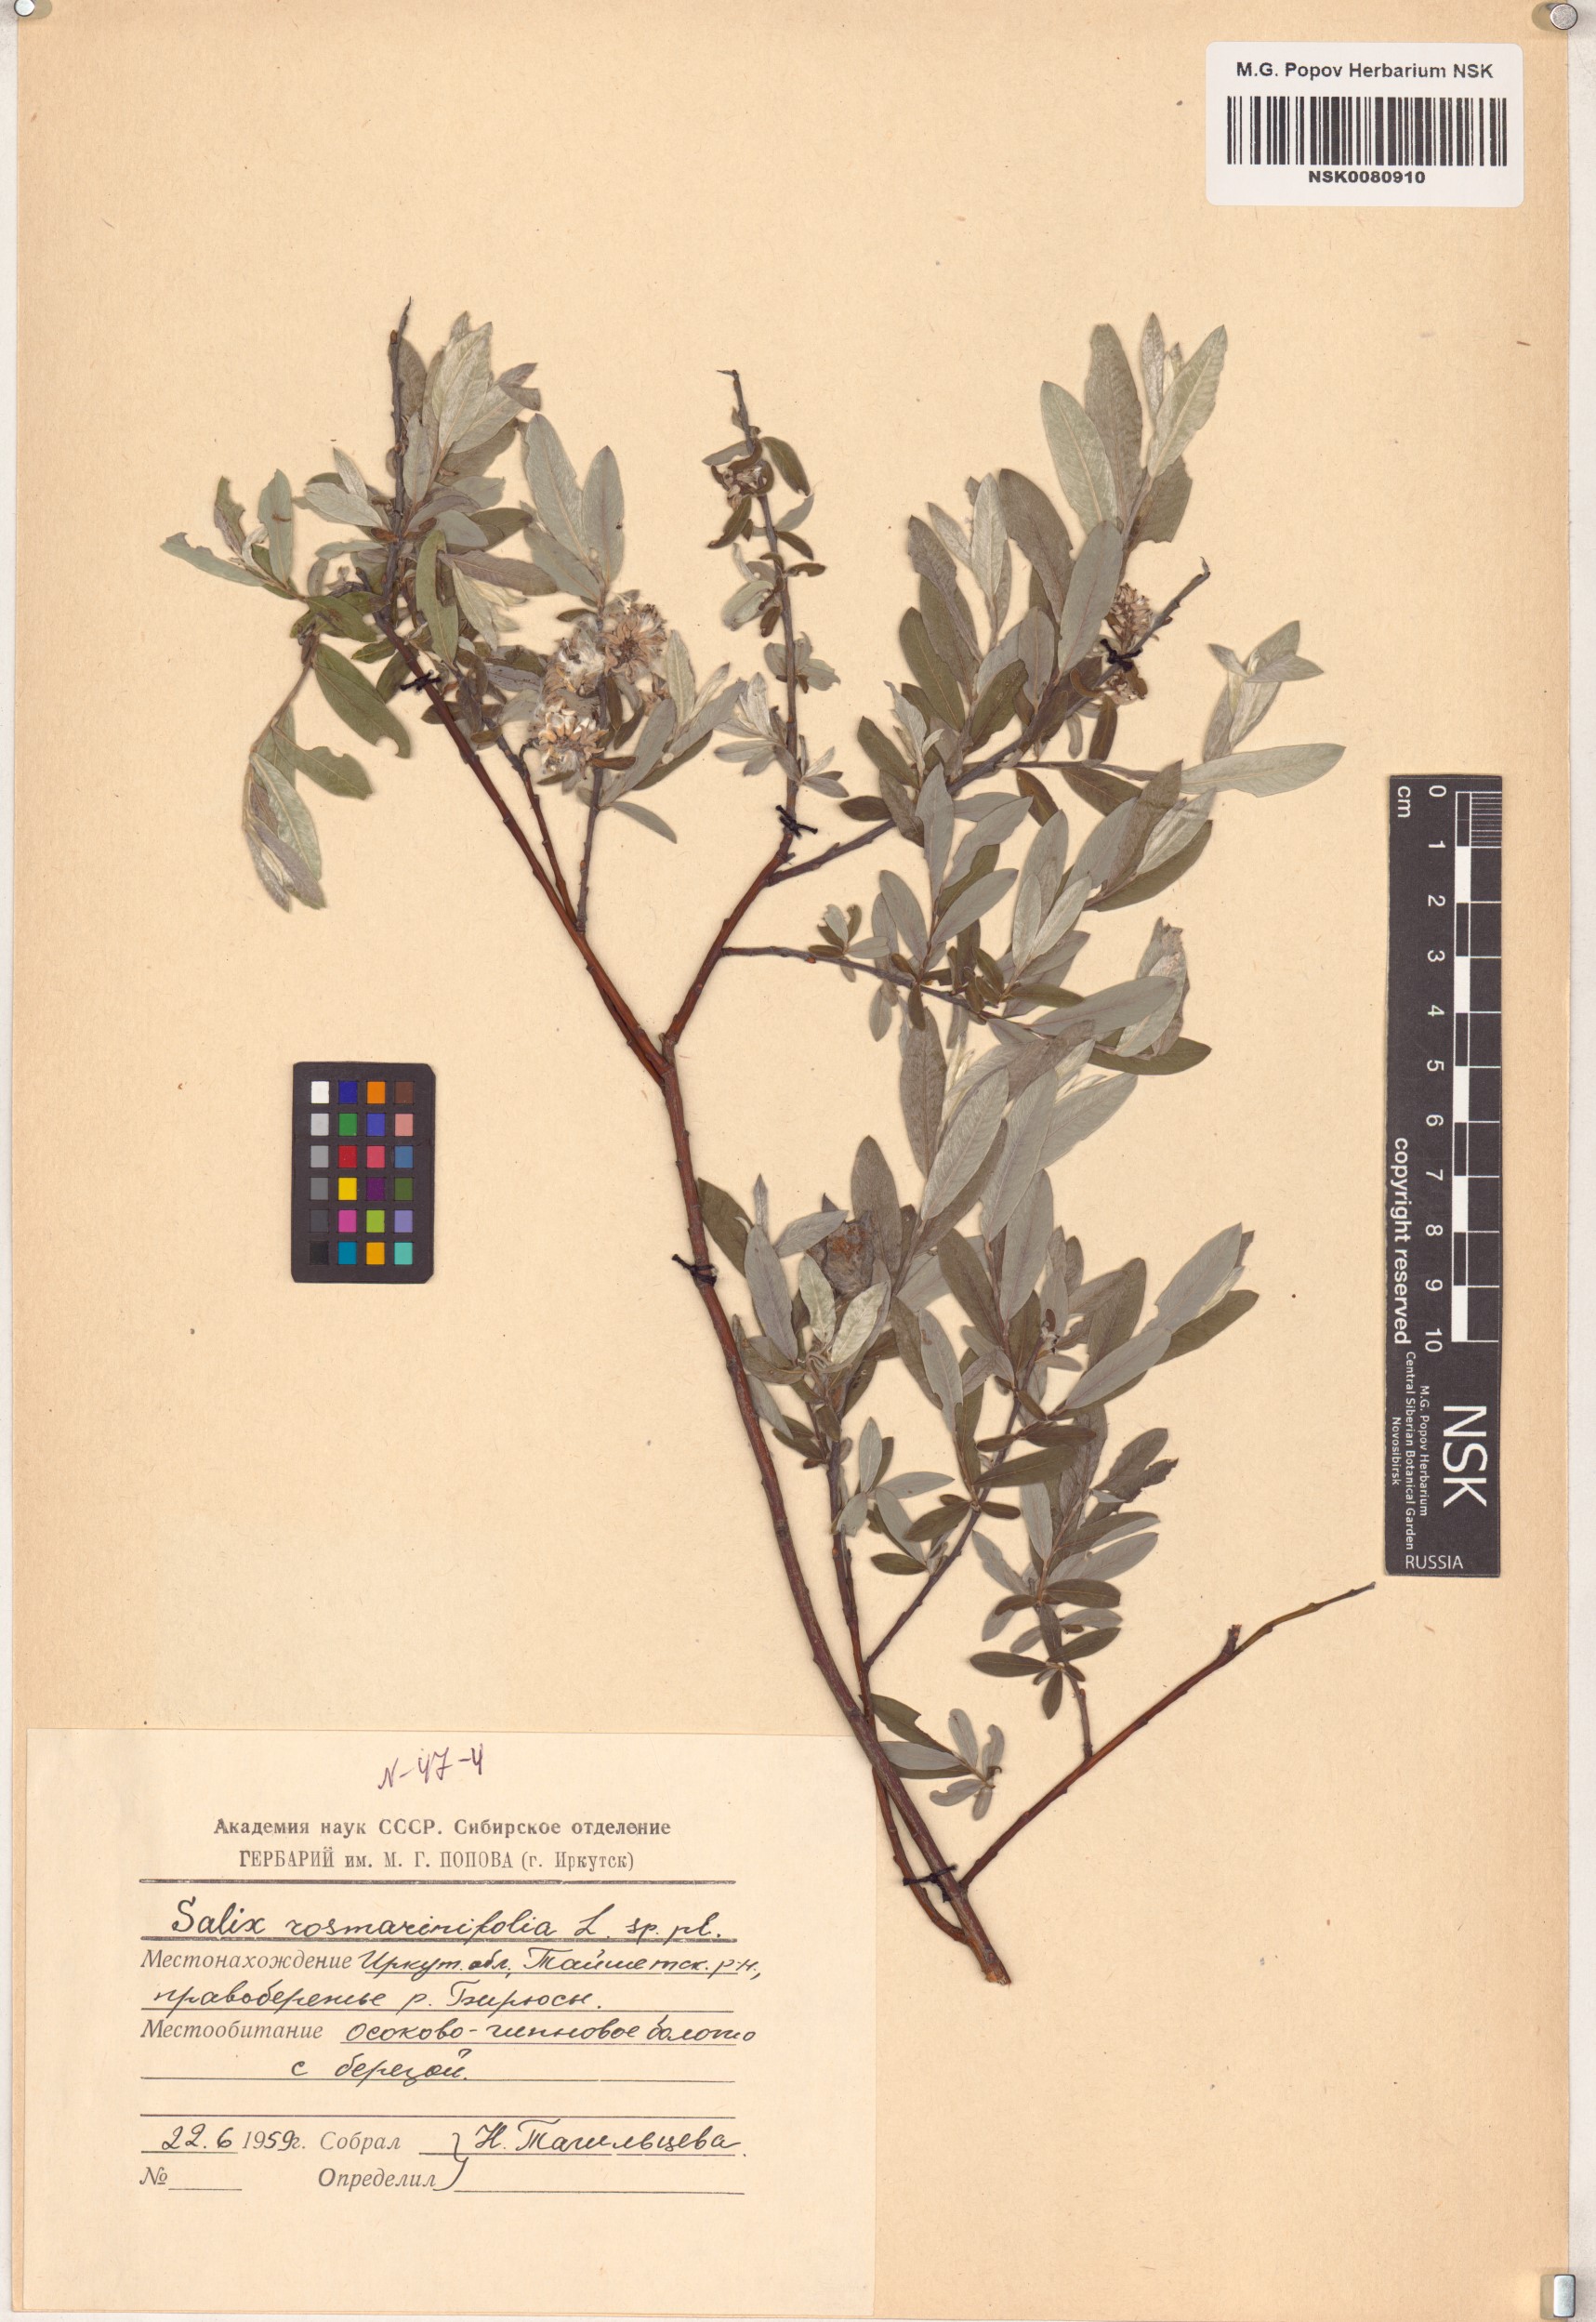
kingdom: Plantae
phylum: Tracheophyta
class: Magnoliopsida
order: Malpighiales
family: Salicaceae
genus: Salix
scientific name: Salix rosmarinifolia
